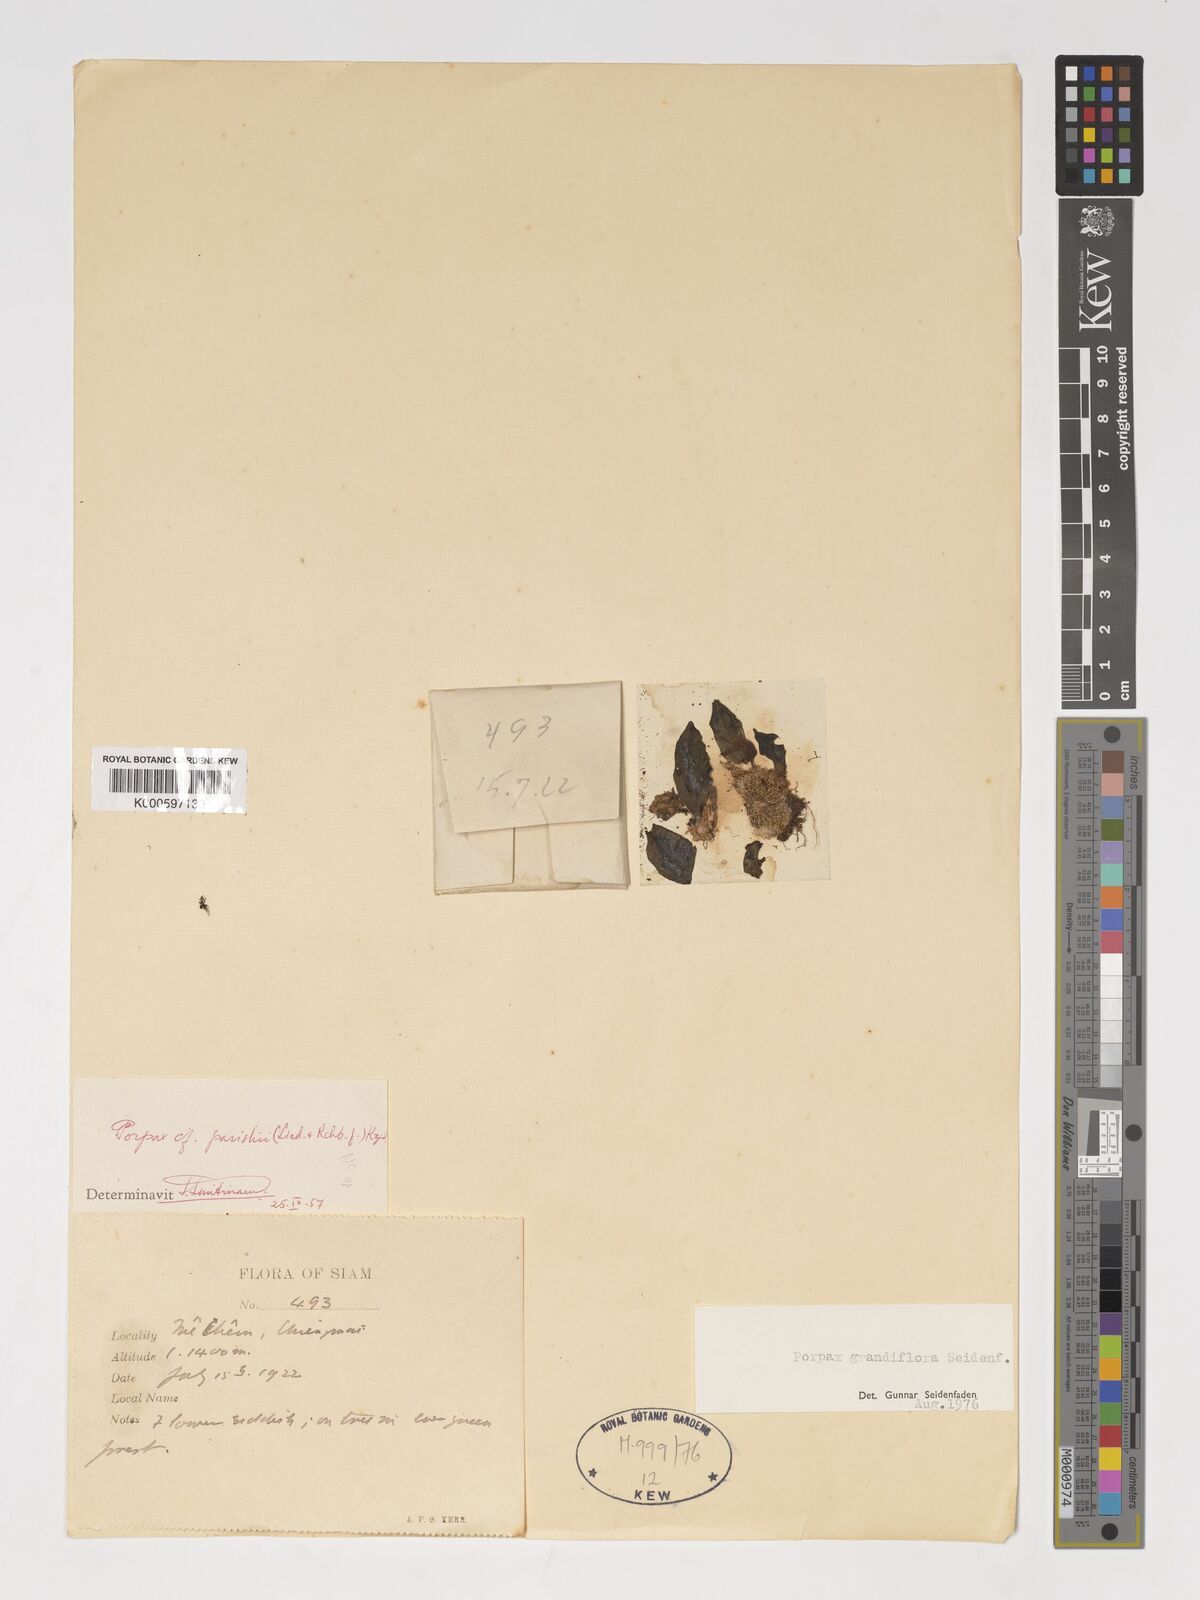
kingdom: Plantae
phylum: Tracheophyta
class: Liliopsida
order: Asparagales
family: Orchidaceae
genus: Porpax
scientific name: Porpax grandiflora
